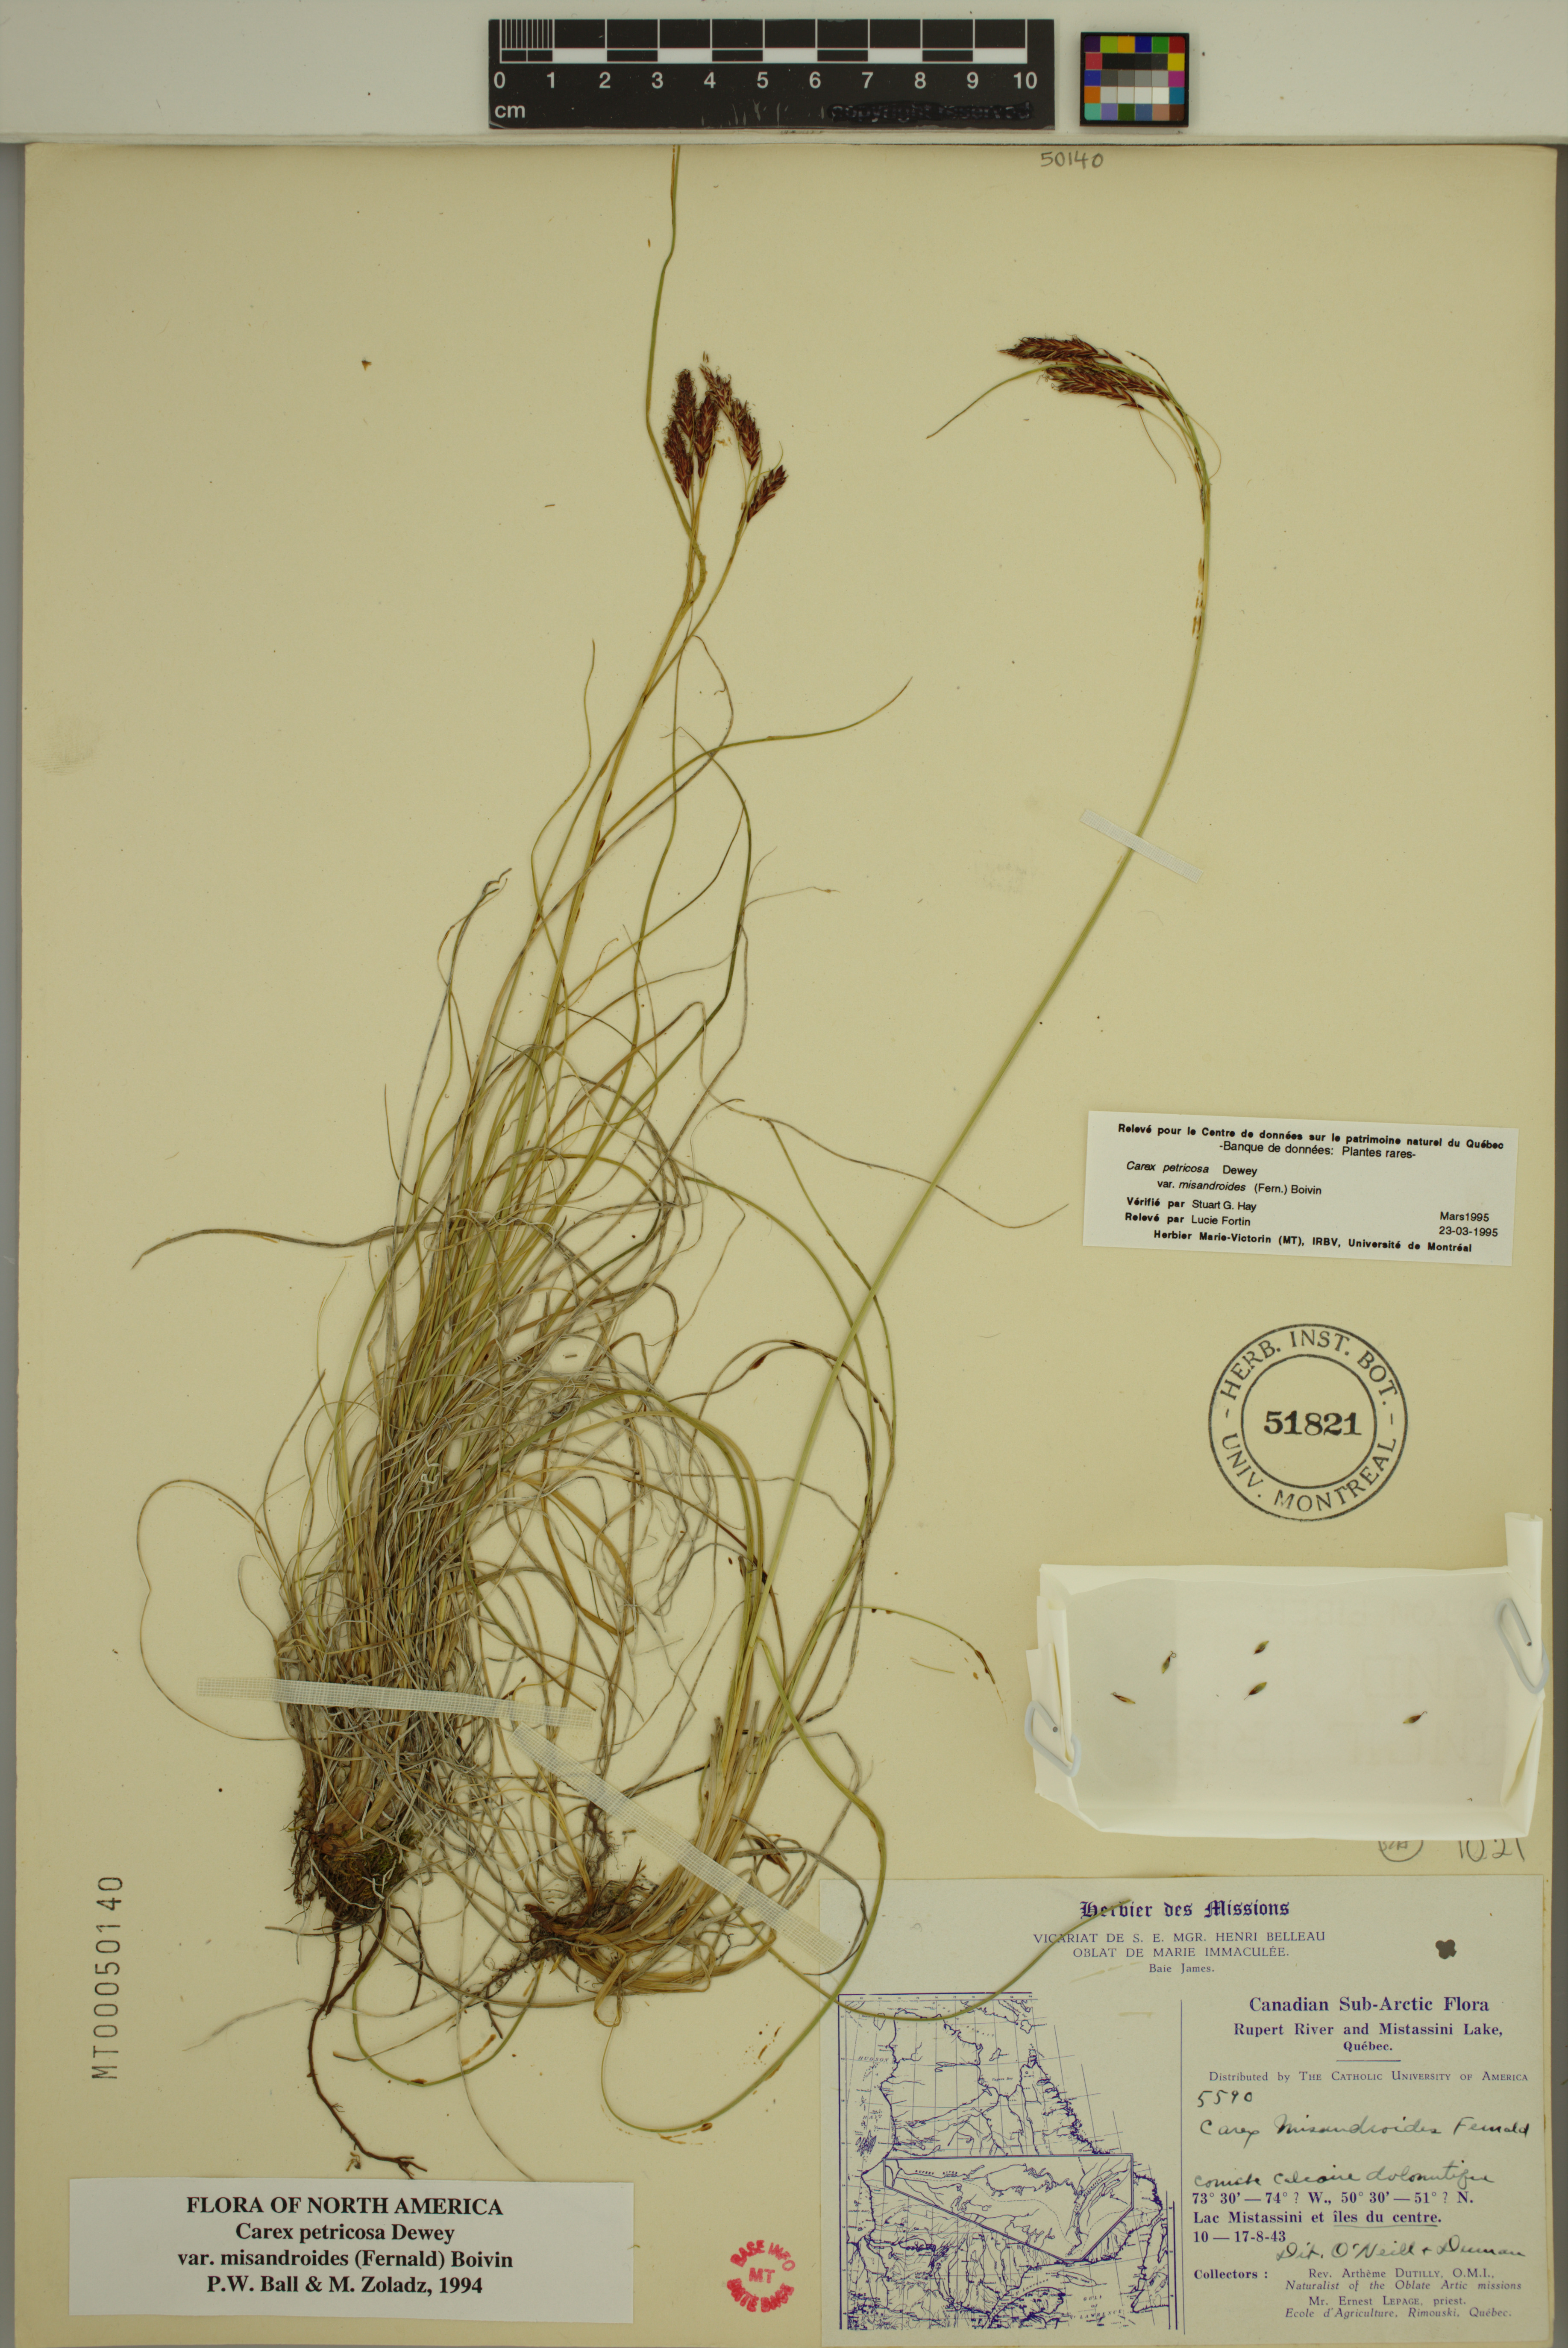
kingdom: Plantae
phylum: Tracheophyta
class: Liliopsida
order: Poales
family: Cyperaceae
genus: Carex
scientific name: Carex petricosa
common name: Rock sedge
